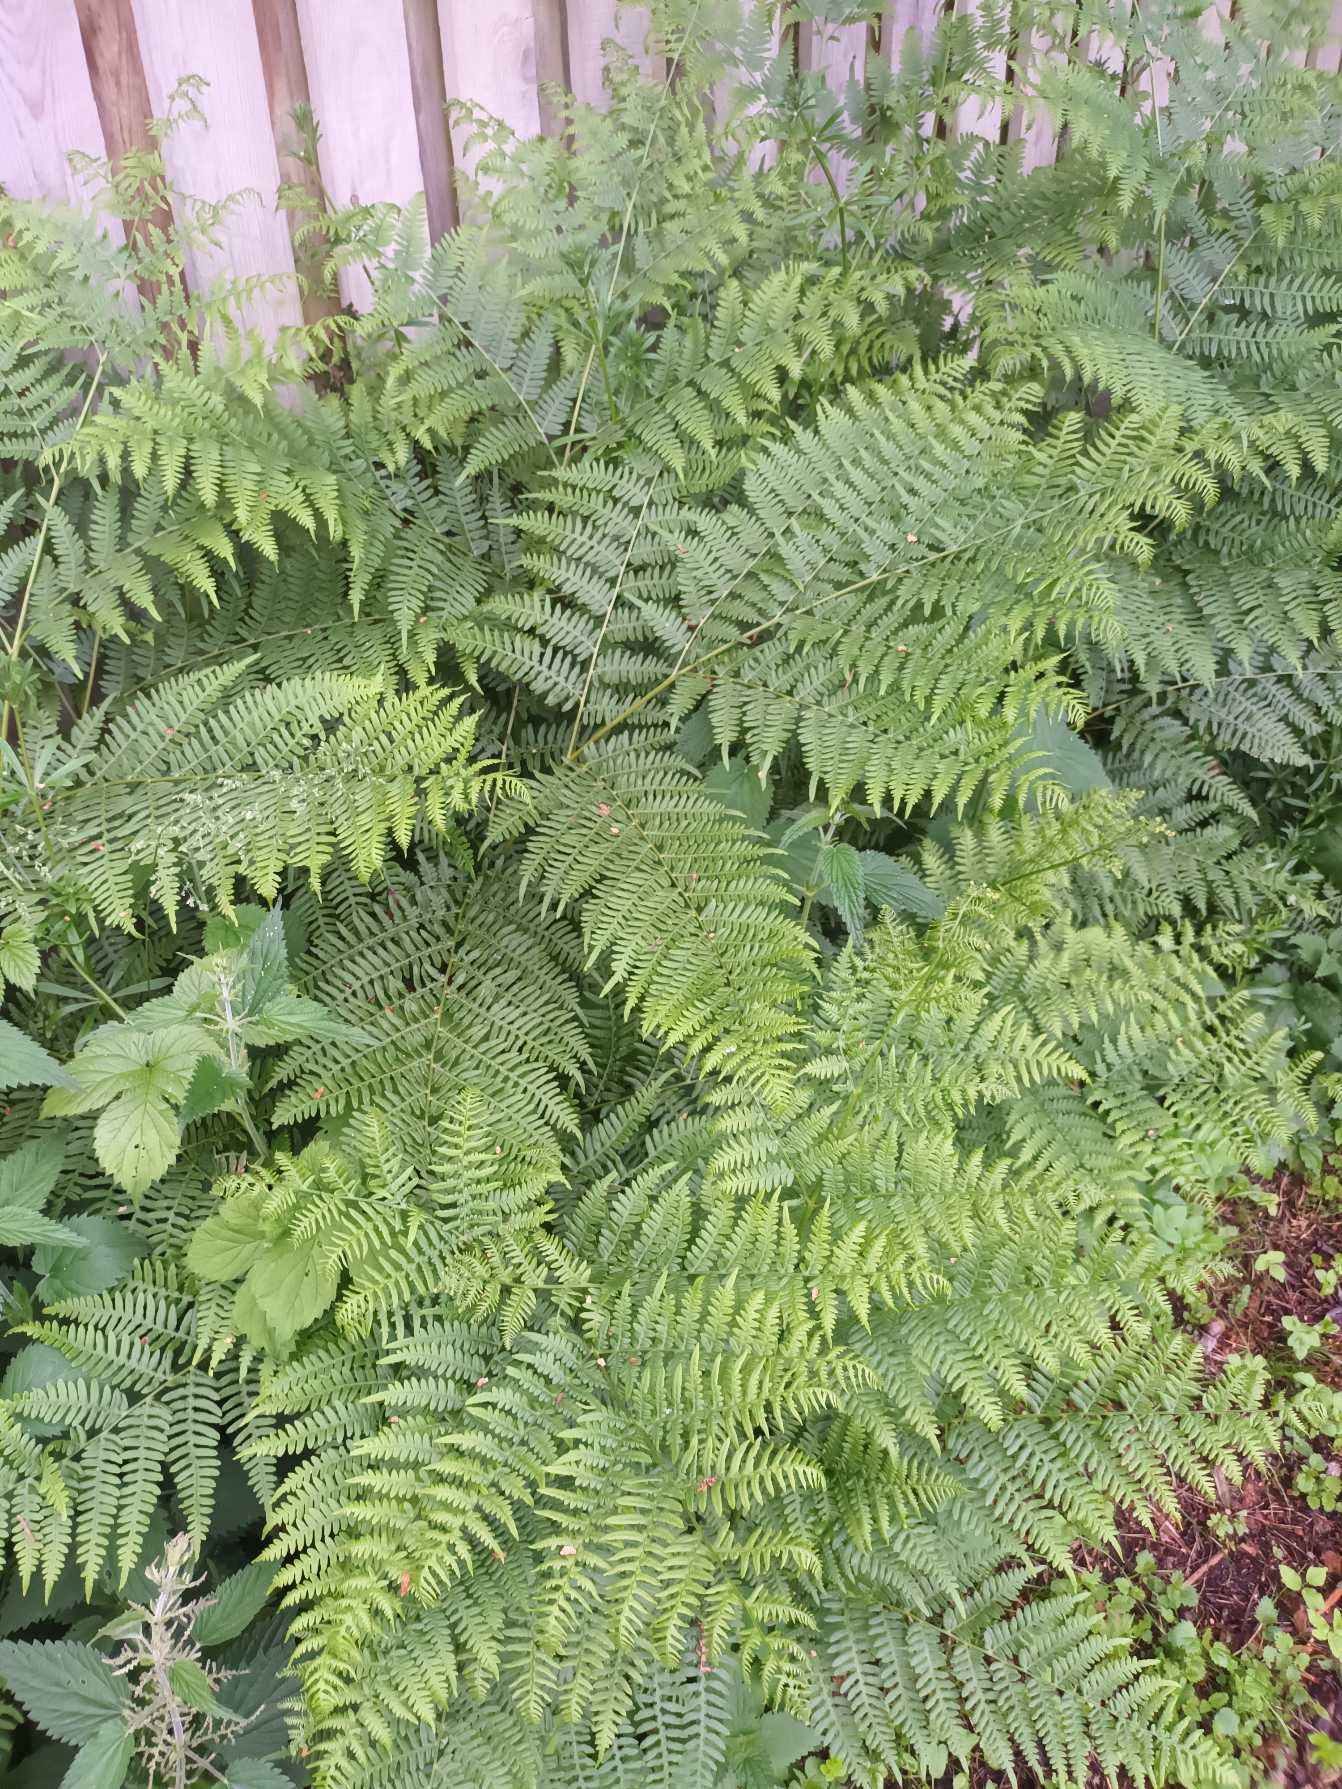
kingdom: Plantae
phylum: Tracheophyta
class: Polypodiopsida
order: Polypodiales
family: Dennstaedtiaceae
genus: Pteridium
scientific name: Pteridium aquilinum
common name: Ørnebregne
